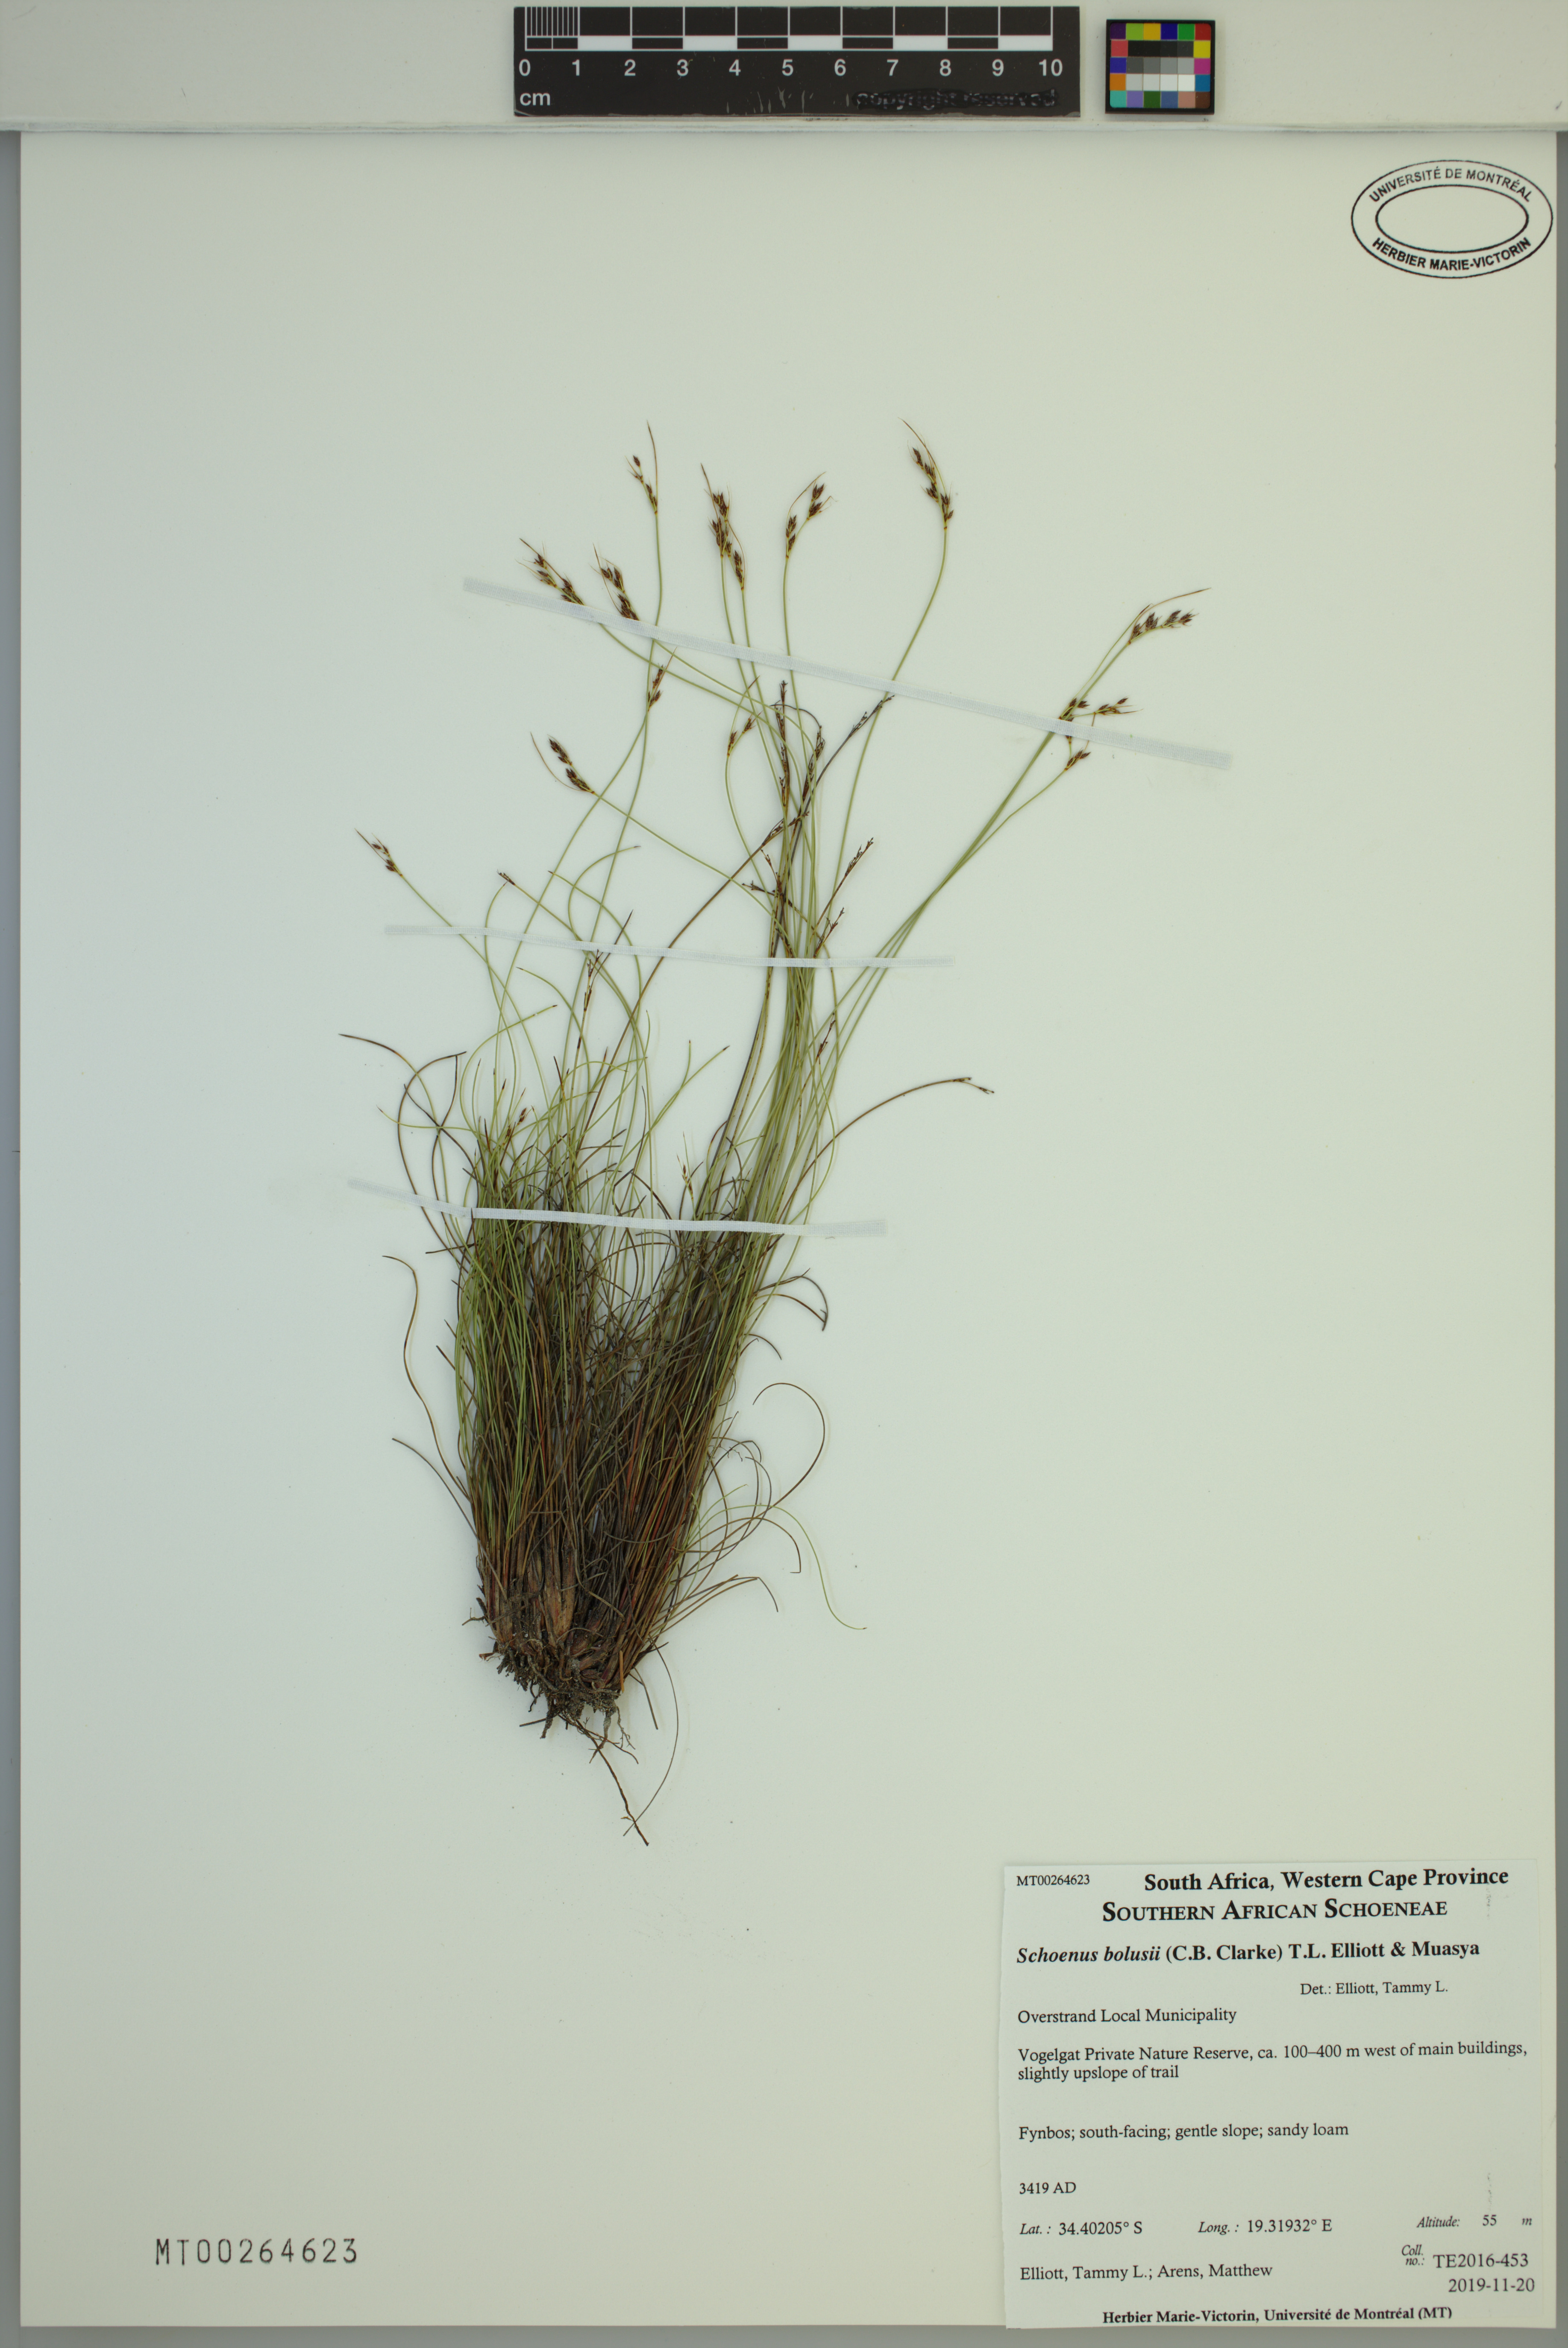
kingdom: Plantae
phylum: Tracheophyta
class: Liliopsida
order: Poales
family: Cyperaceae
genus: Schoenus
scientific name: Schoenus bolusii
